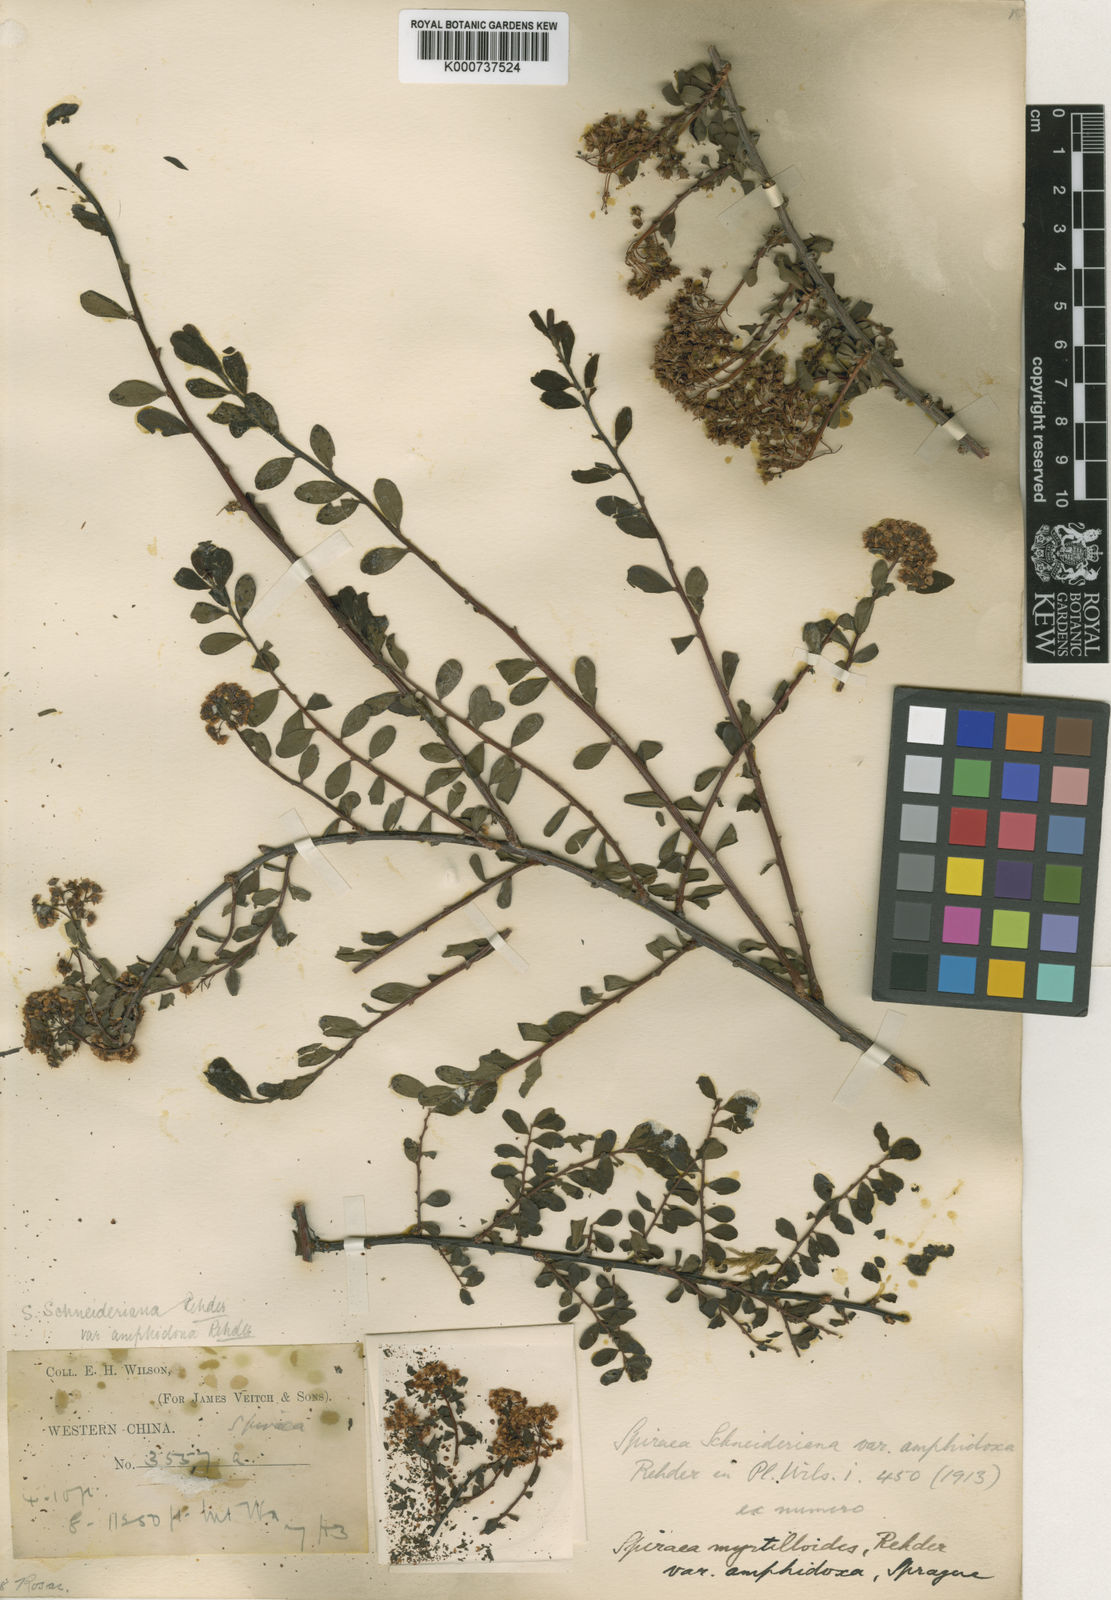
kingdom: Plantae
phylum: Tracheophyta
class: Magnoliopsida
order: Rosales
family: Rosaceae
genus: Spiraea
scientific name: Spiraea schneideriana
